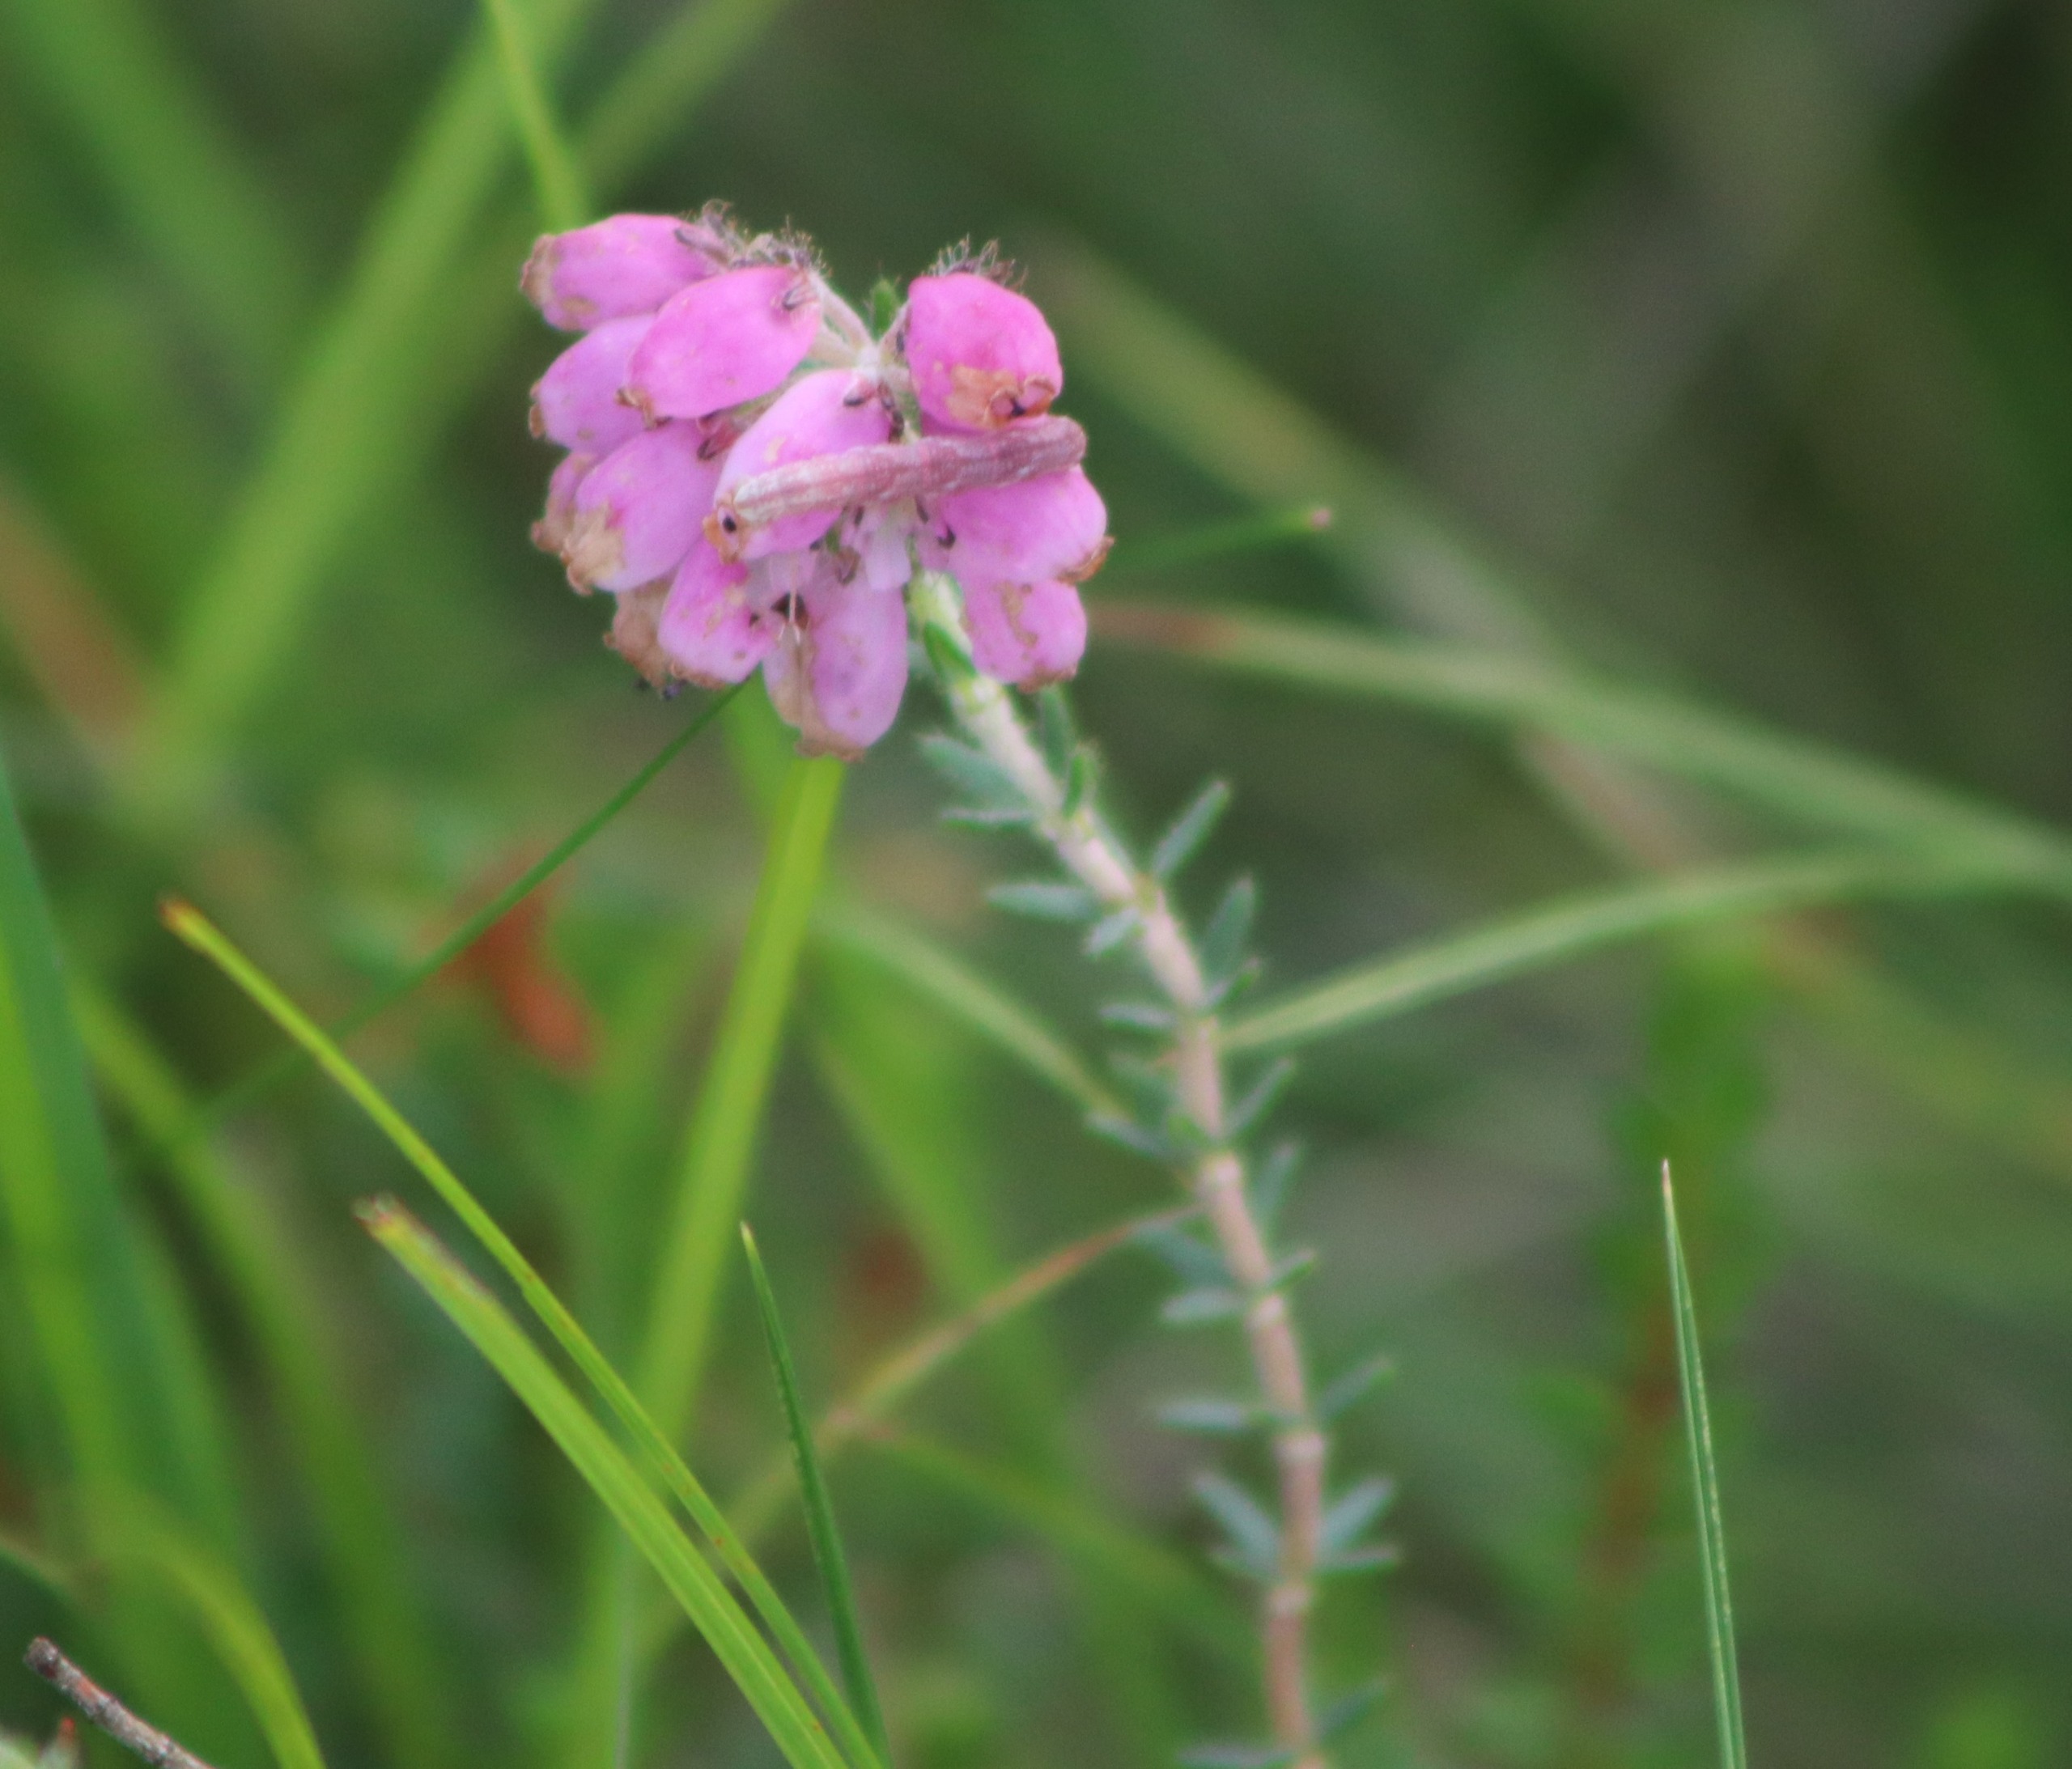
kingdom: Plantae
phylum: Tracheophyta
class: Magnoliopsida
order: Ericales
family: Ericaceae
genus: Erica
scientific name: Erica tetralix
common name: Klokkelyng
